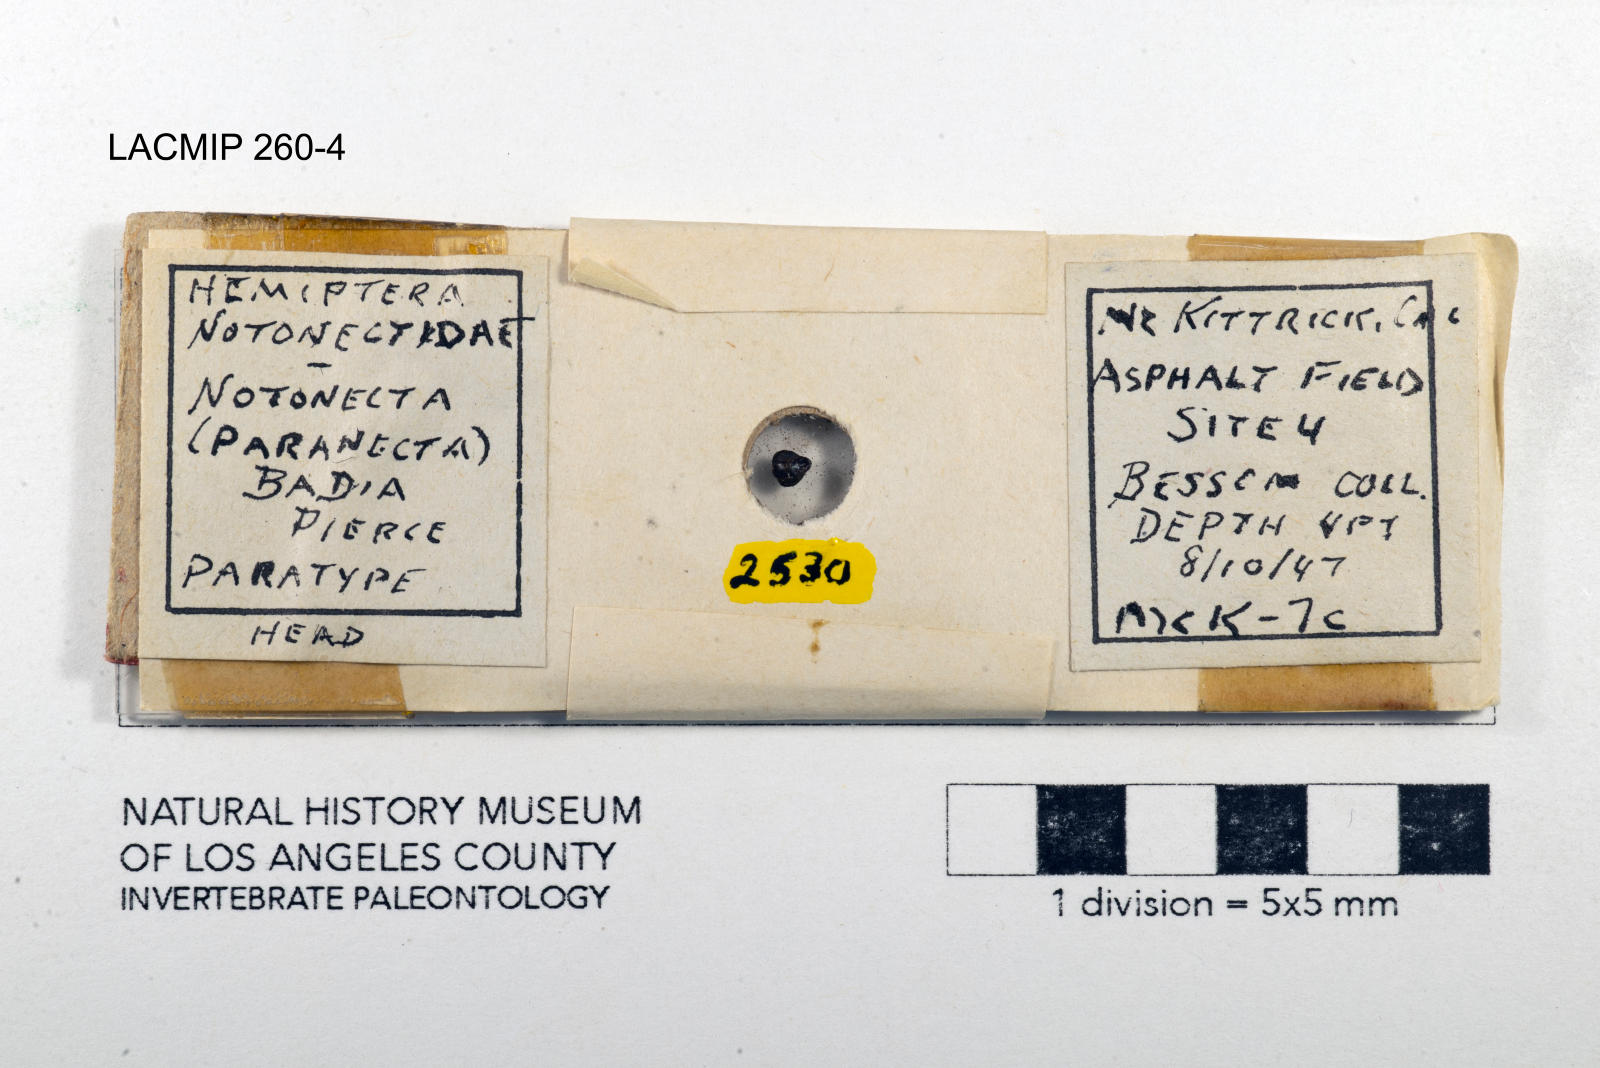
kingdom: Animalia
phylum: Arthropoda
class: Insecta
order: Hemiptera
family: Notonectidae
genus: Notonecta
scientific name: Notonecta unifasciata
